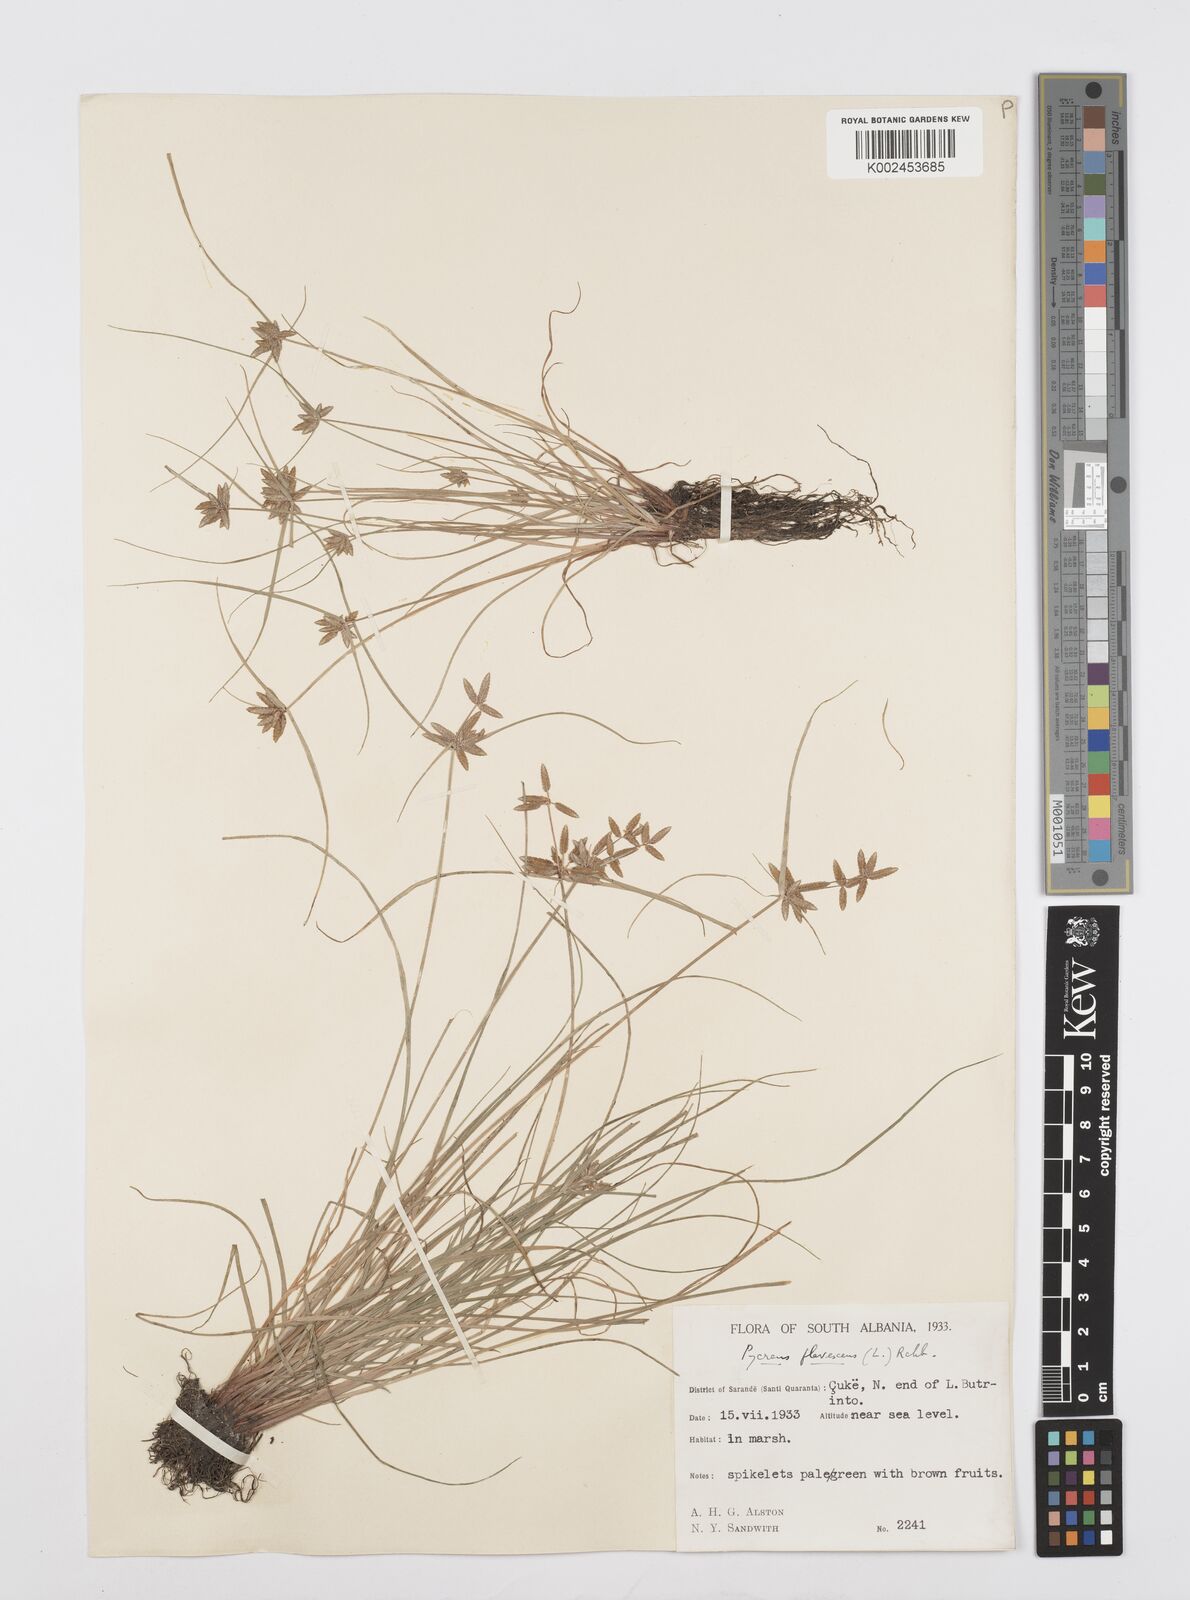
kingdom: Plantae
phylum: Tracheophyta
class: Liliopsida
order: Poales
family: Cyperaceae
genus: Cyperus
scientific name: Cyperus flavescens
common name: Yellow galingale
